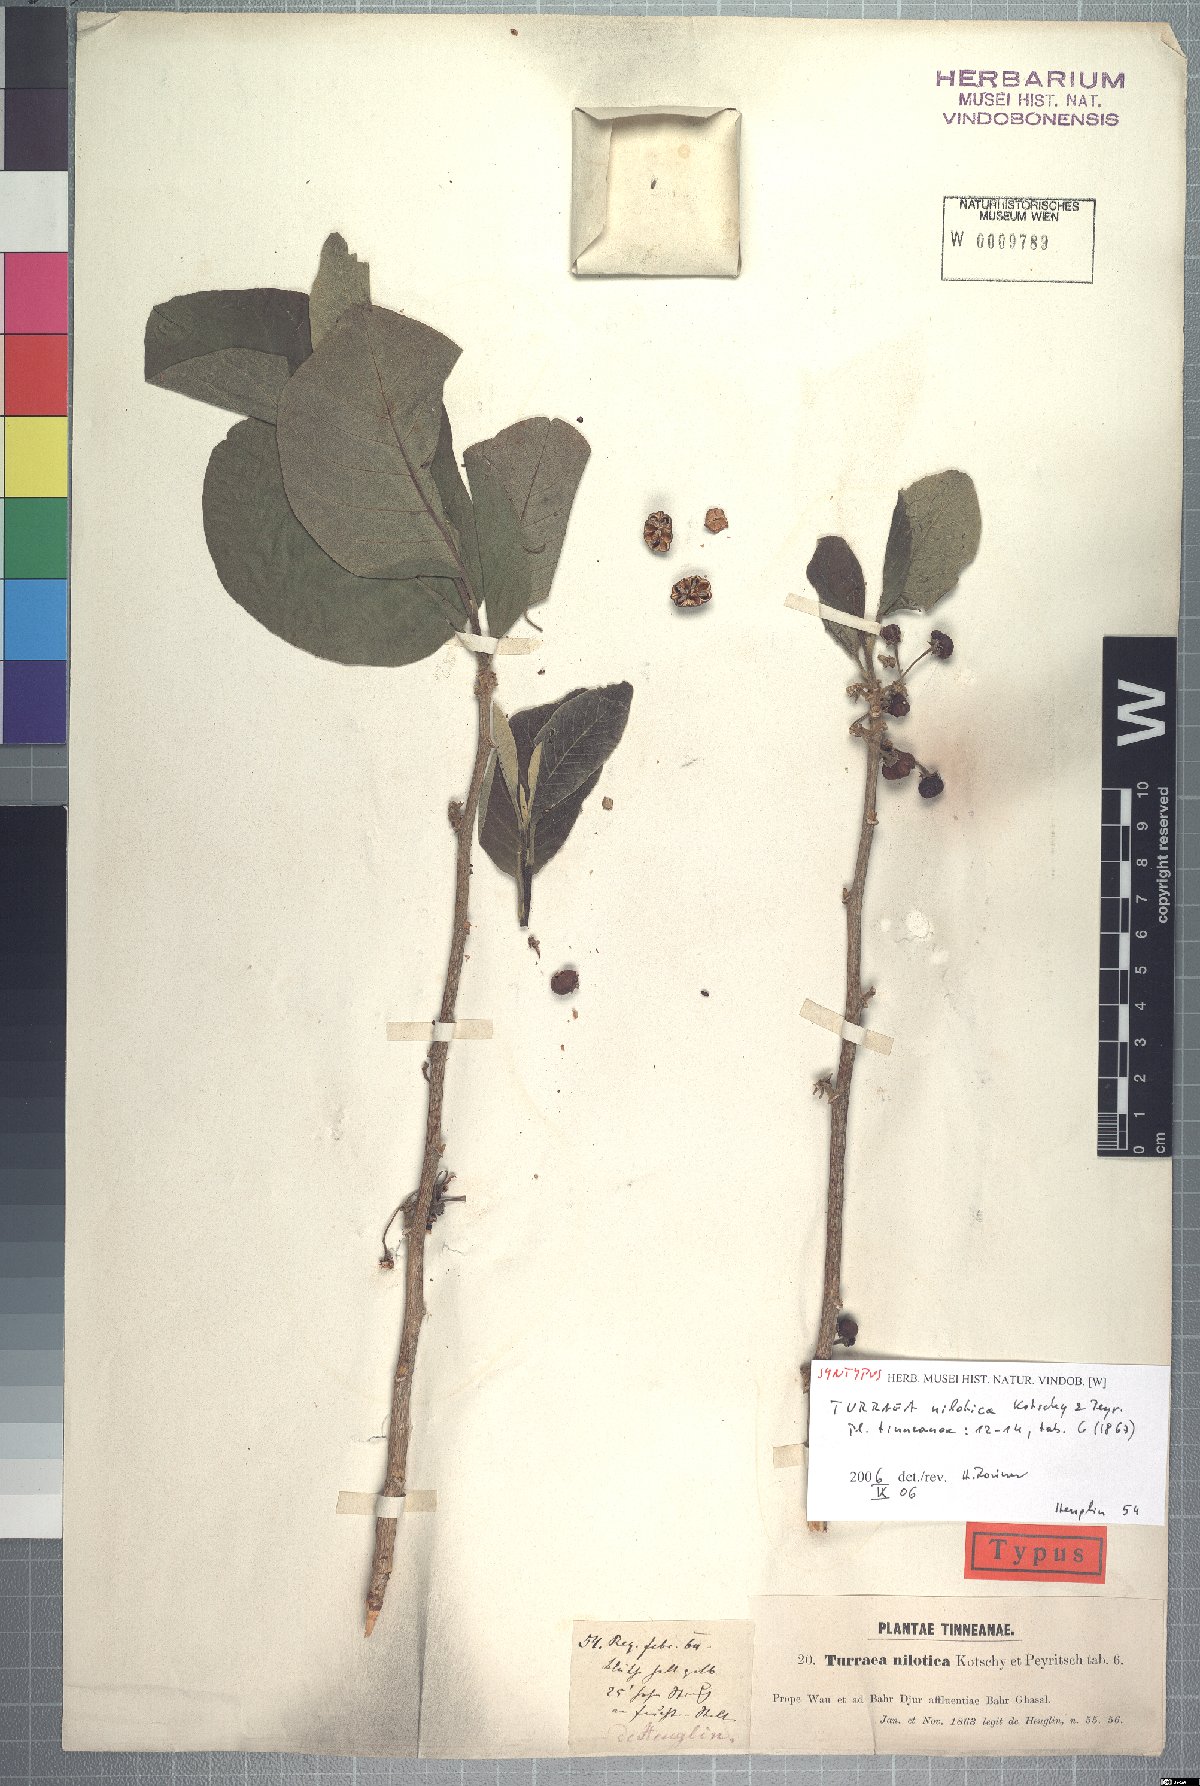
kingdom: Plantae
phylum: Tracheophyta
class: Magnoliopsida
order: Sapindales
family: Meliaceae
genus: Turraea
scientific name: Turraea nilotica
